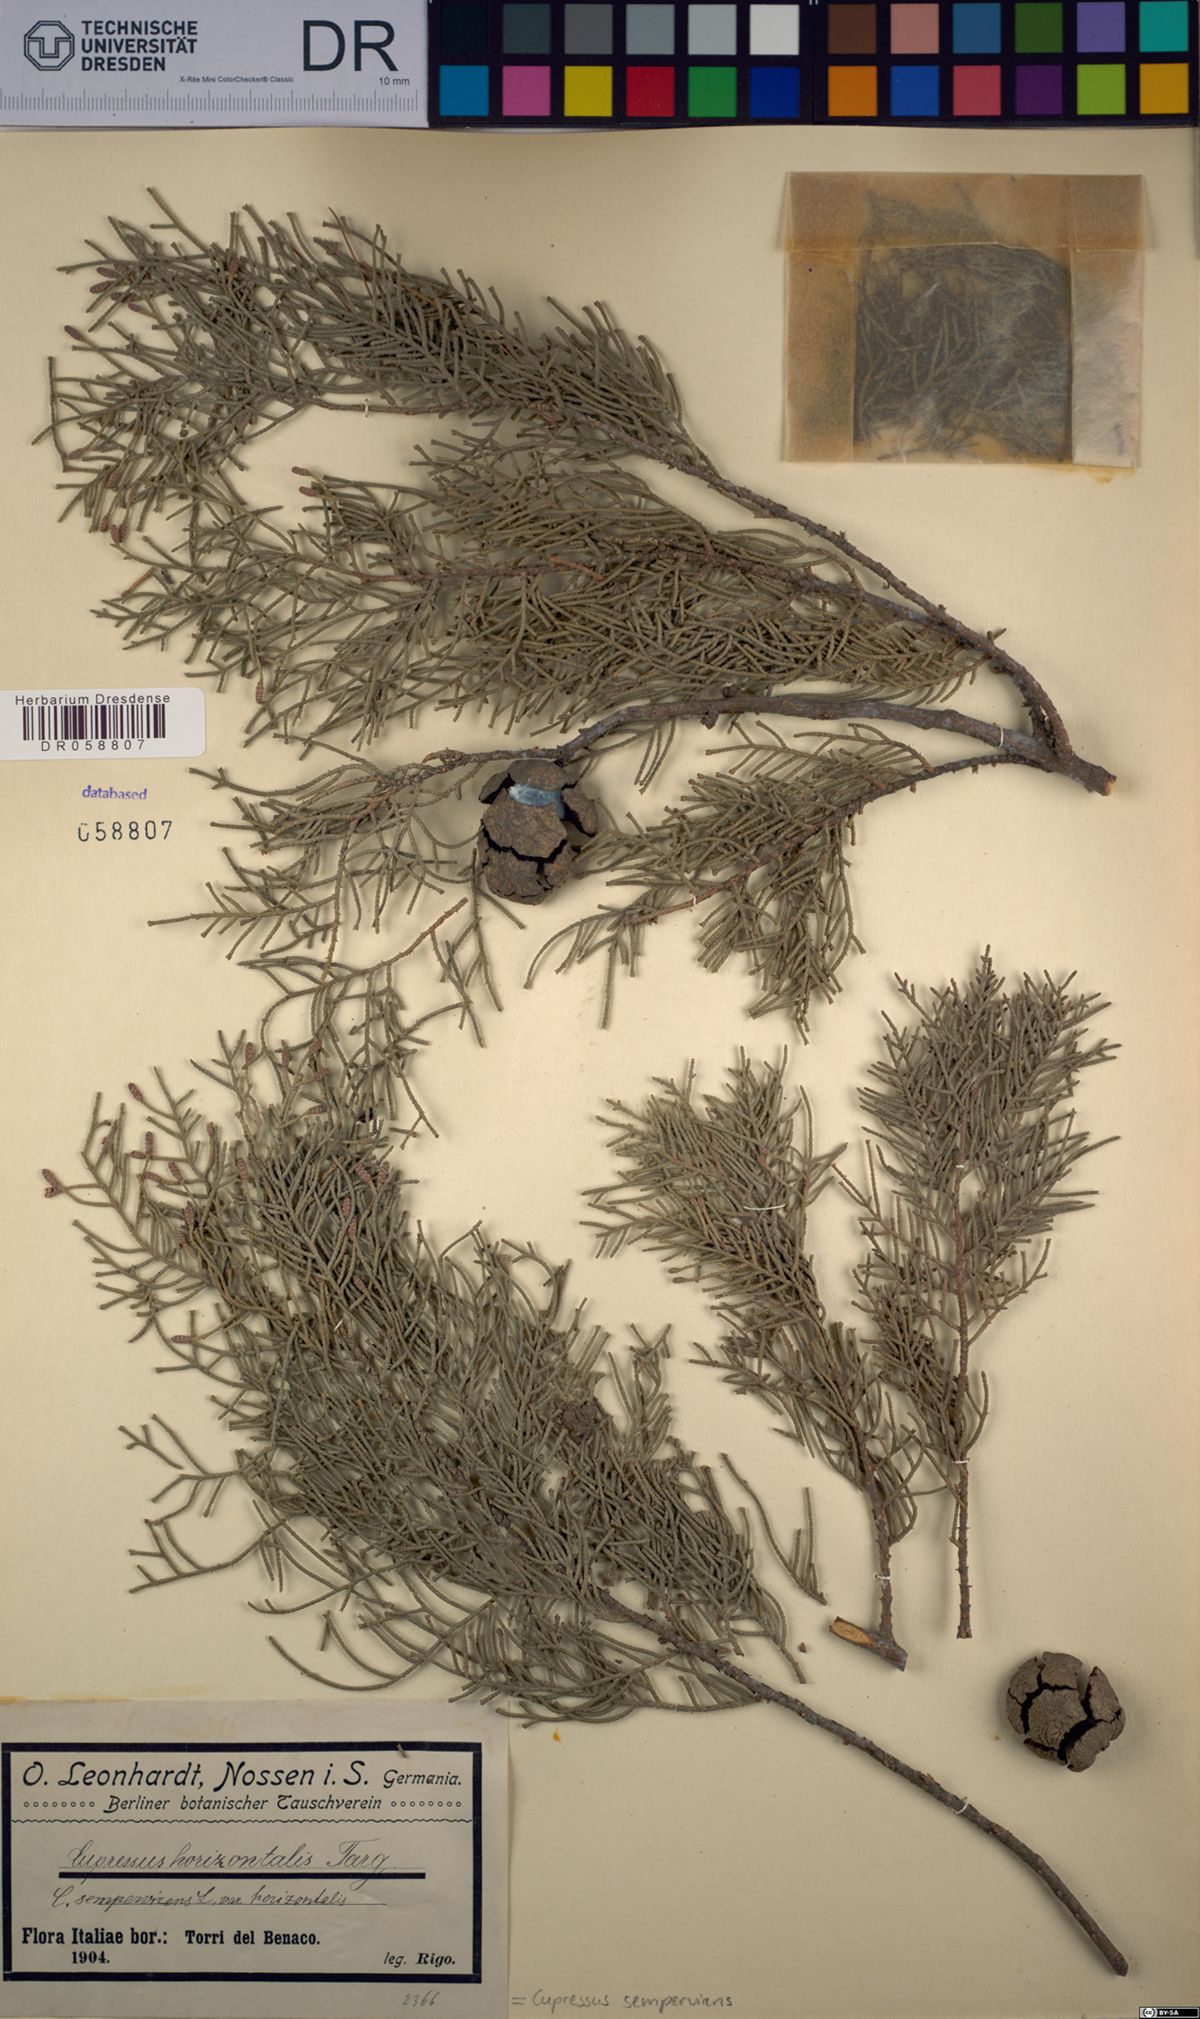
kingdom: Plantae
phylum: Tracheophyta
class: Pinopsida
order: Pinales
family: Cupressaceae
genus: Cupressus
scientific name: Cupressus sempervirens
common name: Italian cypress
